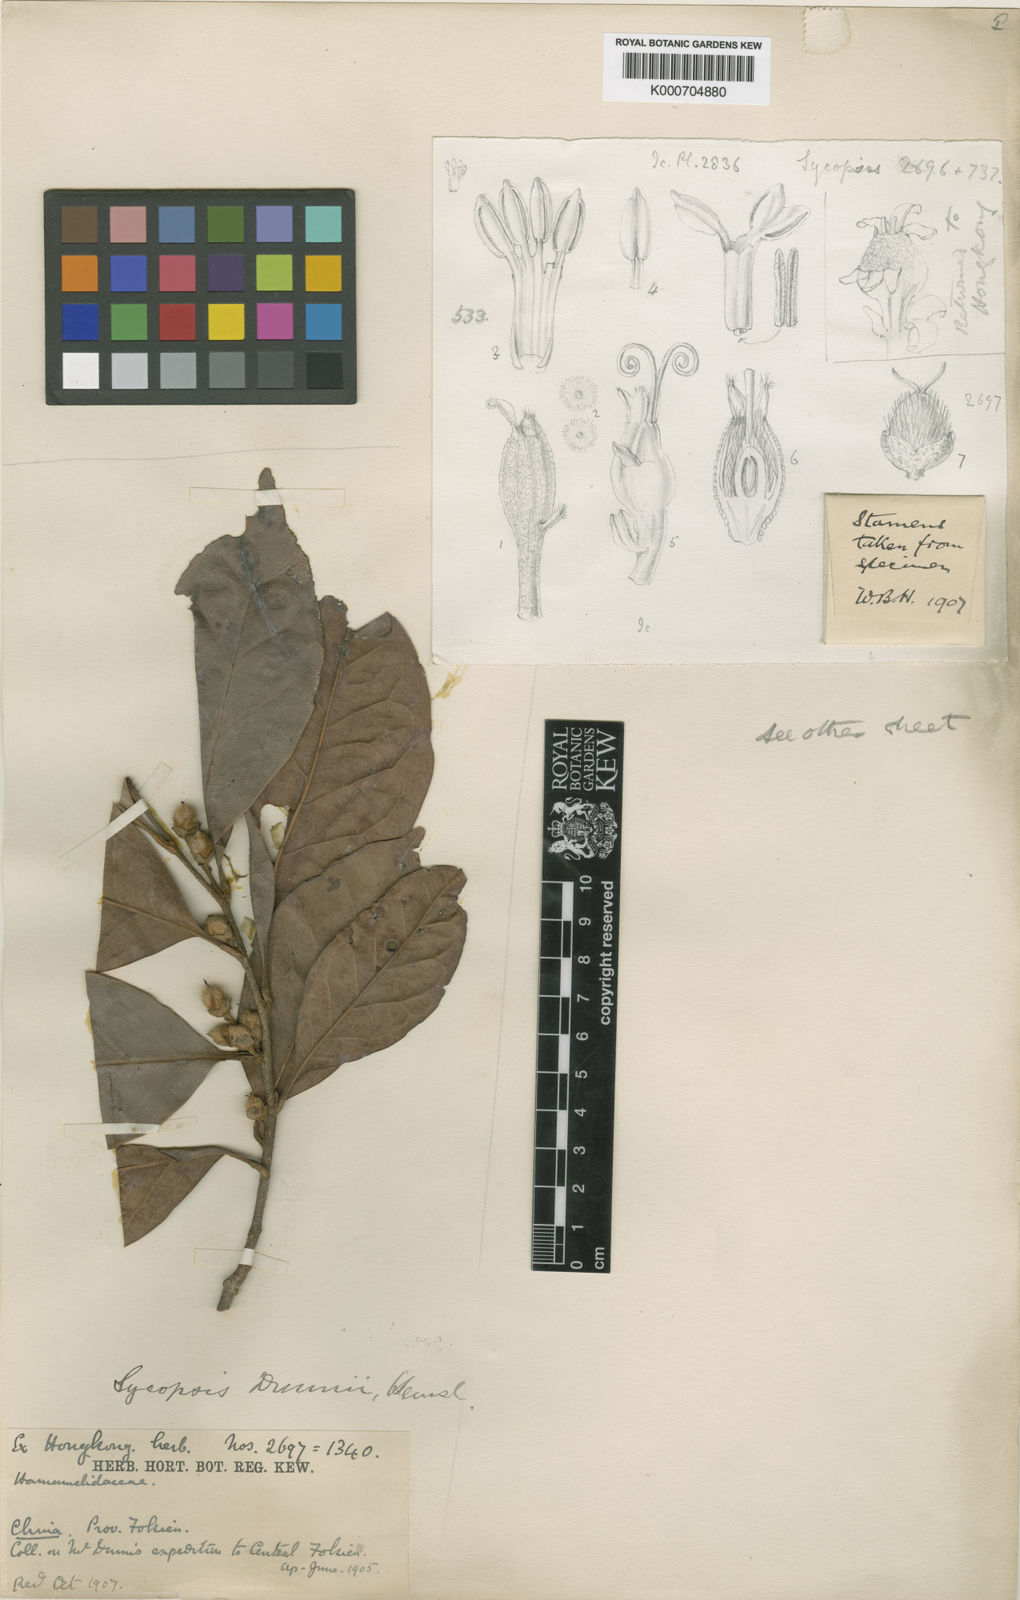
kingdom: Plantae
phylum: Tracheophyta
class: Magnoliopsida
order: Saxifragales
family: Hamamelidaceae
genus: Distyliopsis
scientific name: Distyliopsis dunnii
